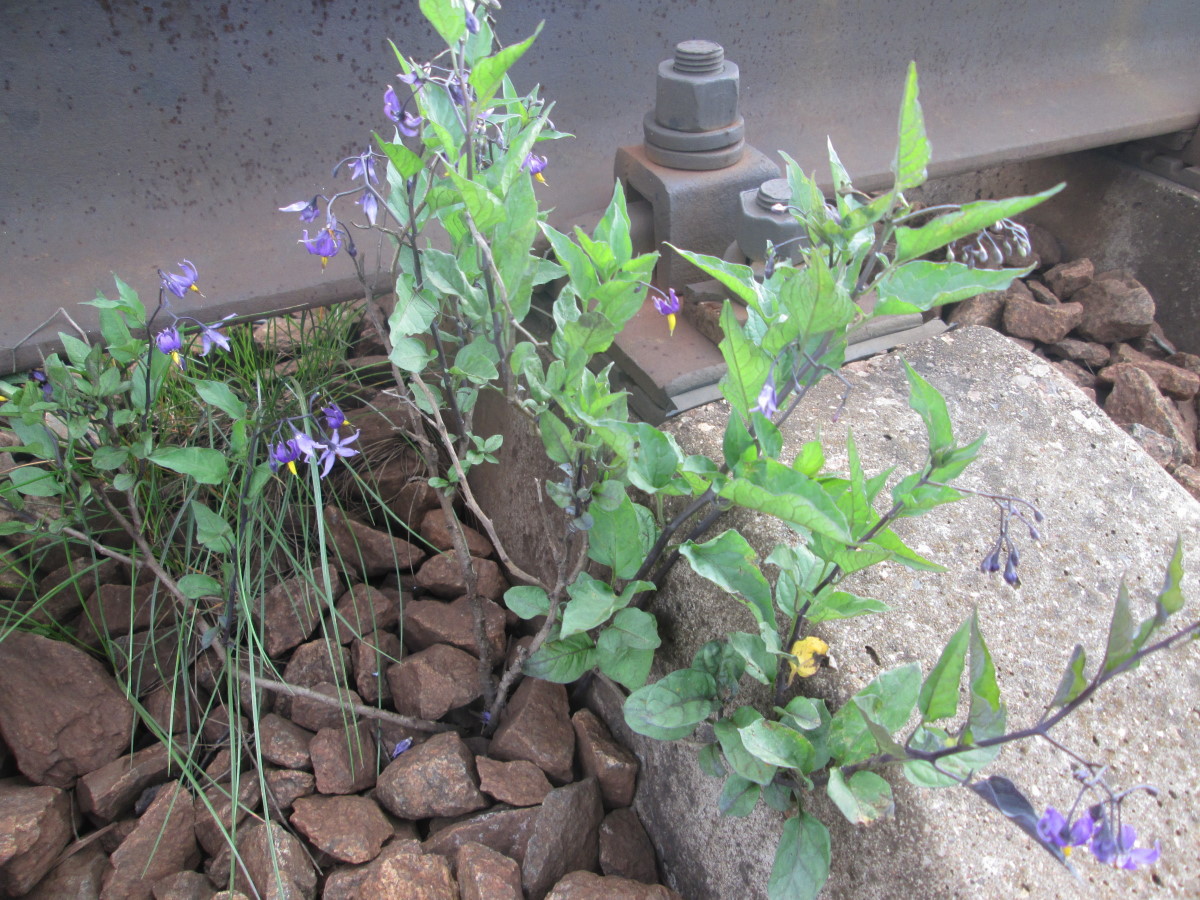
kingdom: Plantae
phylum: Tracheophyta
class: Magnoliopsida
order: Solanales
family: Solanaceae
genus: Solanum
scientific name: Solanum dulcamara
